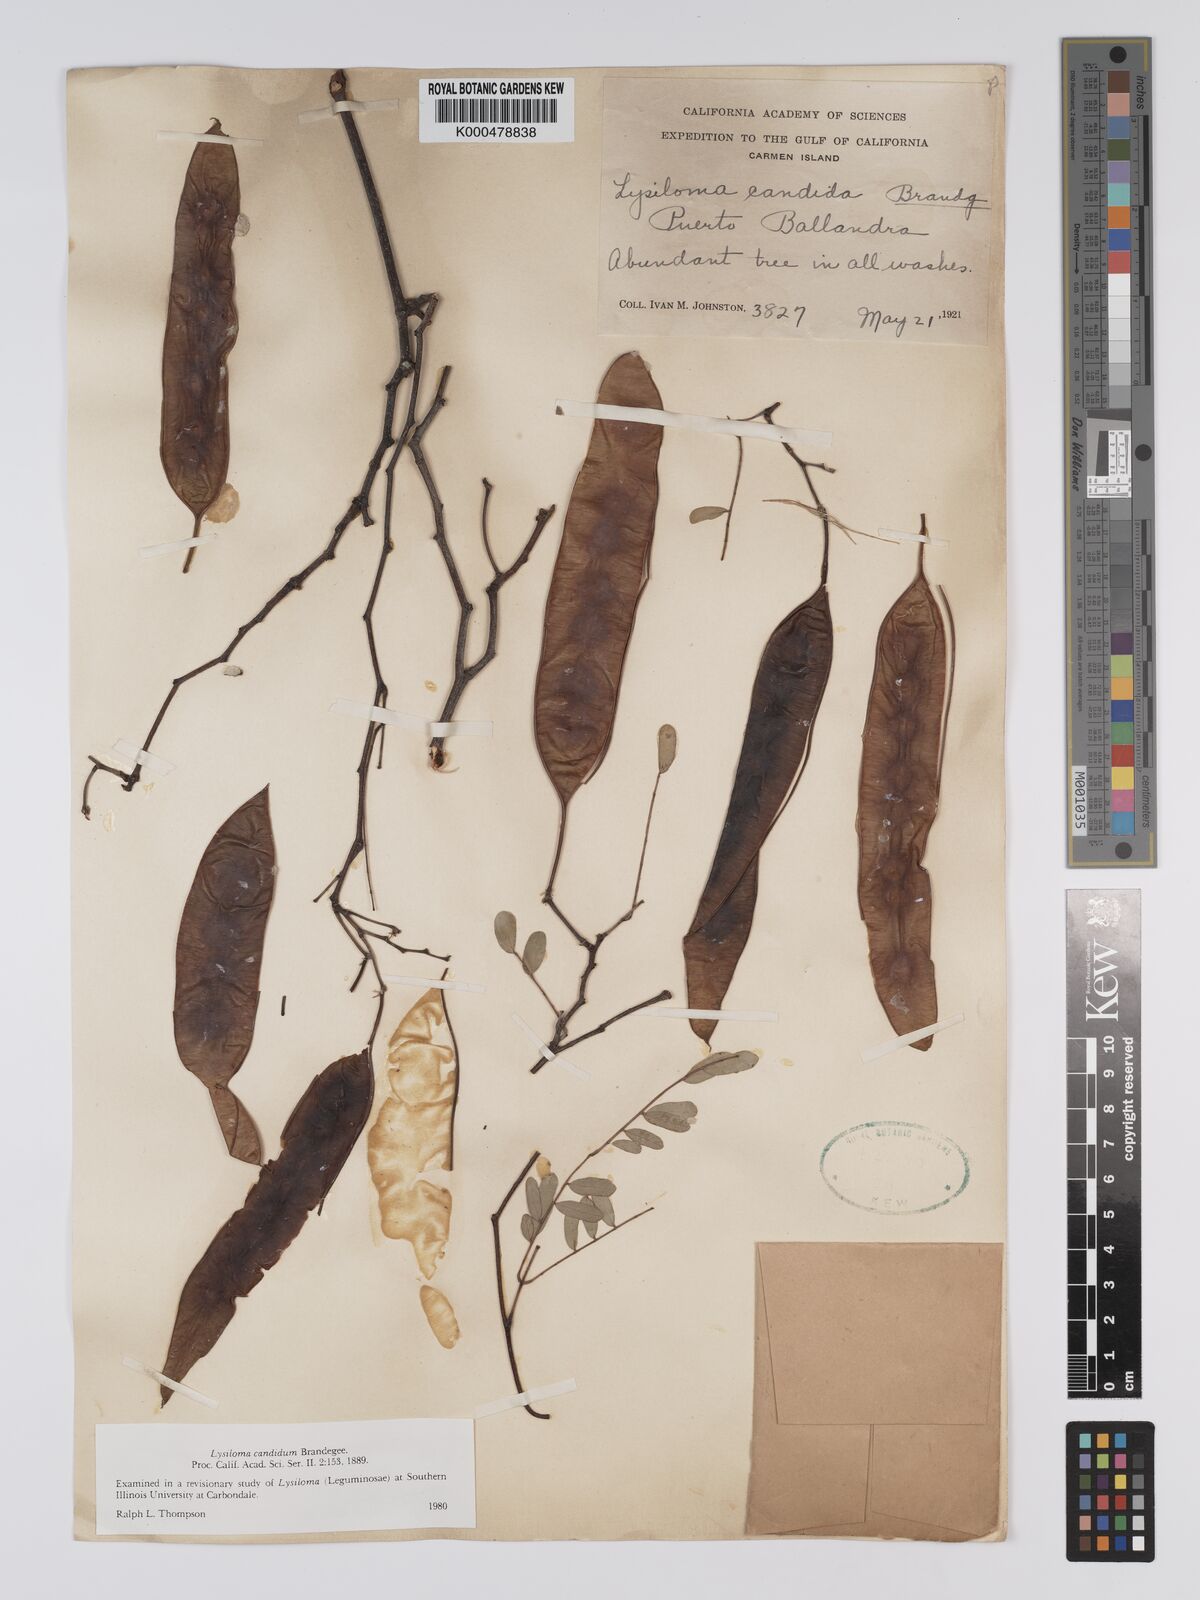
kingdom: Plantae
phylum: Tracheophyta
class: Magnoliopsida
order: Fabales
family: Fabaceae
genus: Lysiloma
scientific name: Lysiloma candidum
